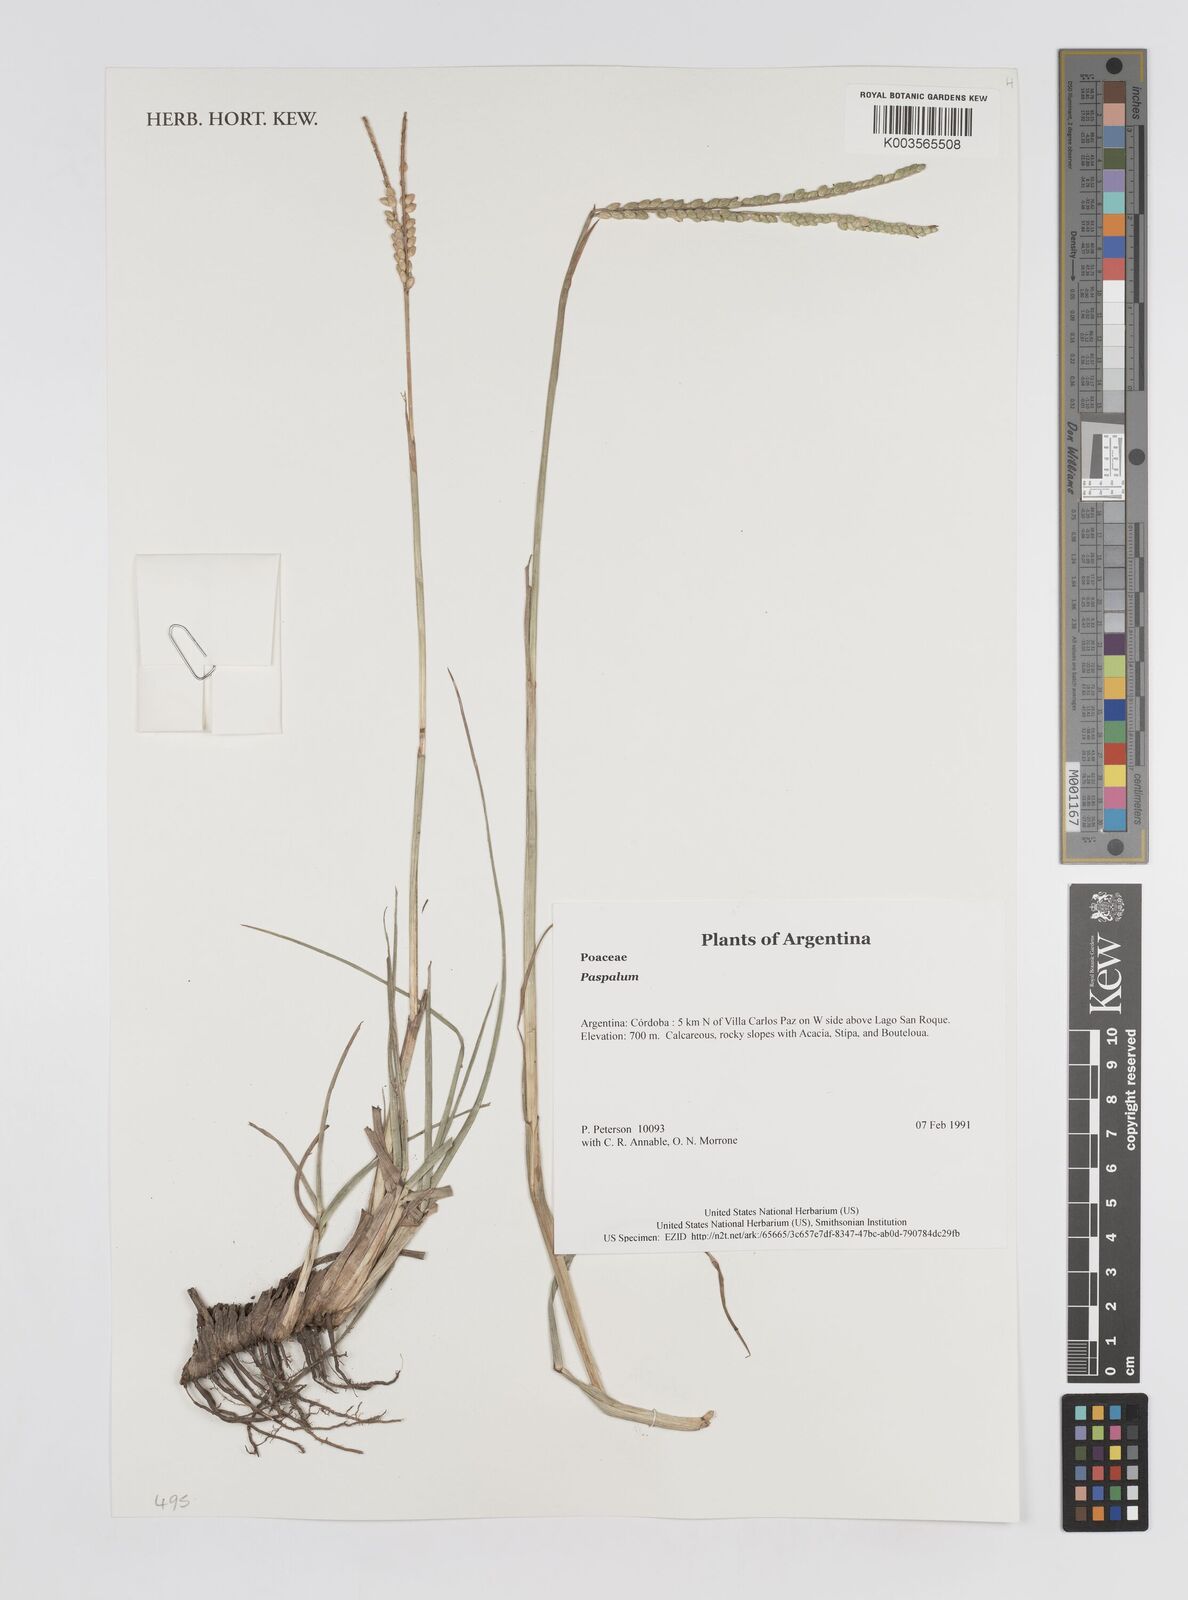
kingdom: Plantae
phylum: Tracheophyta
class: Liliopsida
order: Poales
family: Poaceae
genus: Paspalum
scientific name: Paspalum
